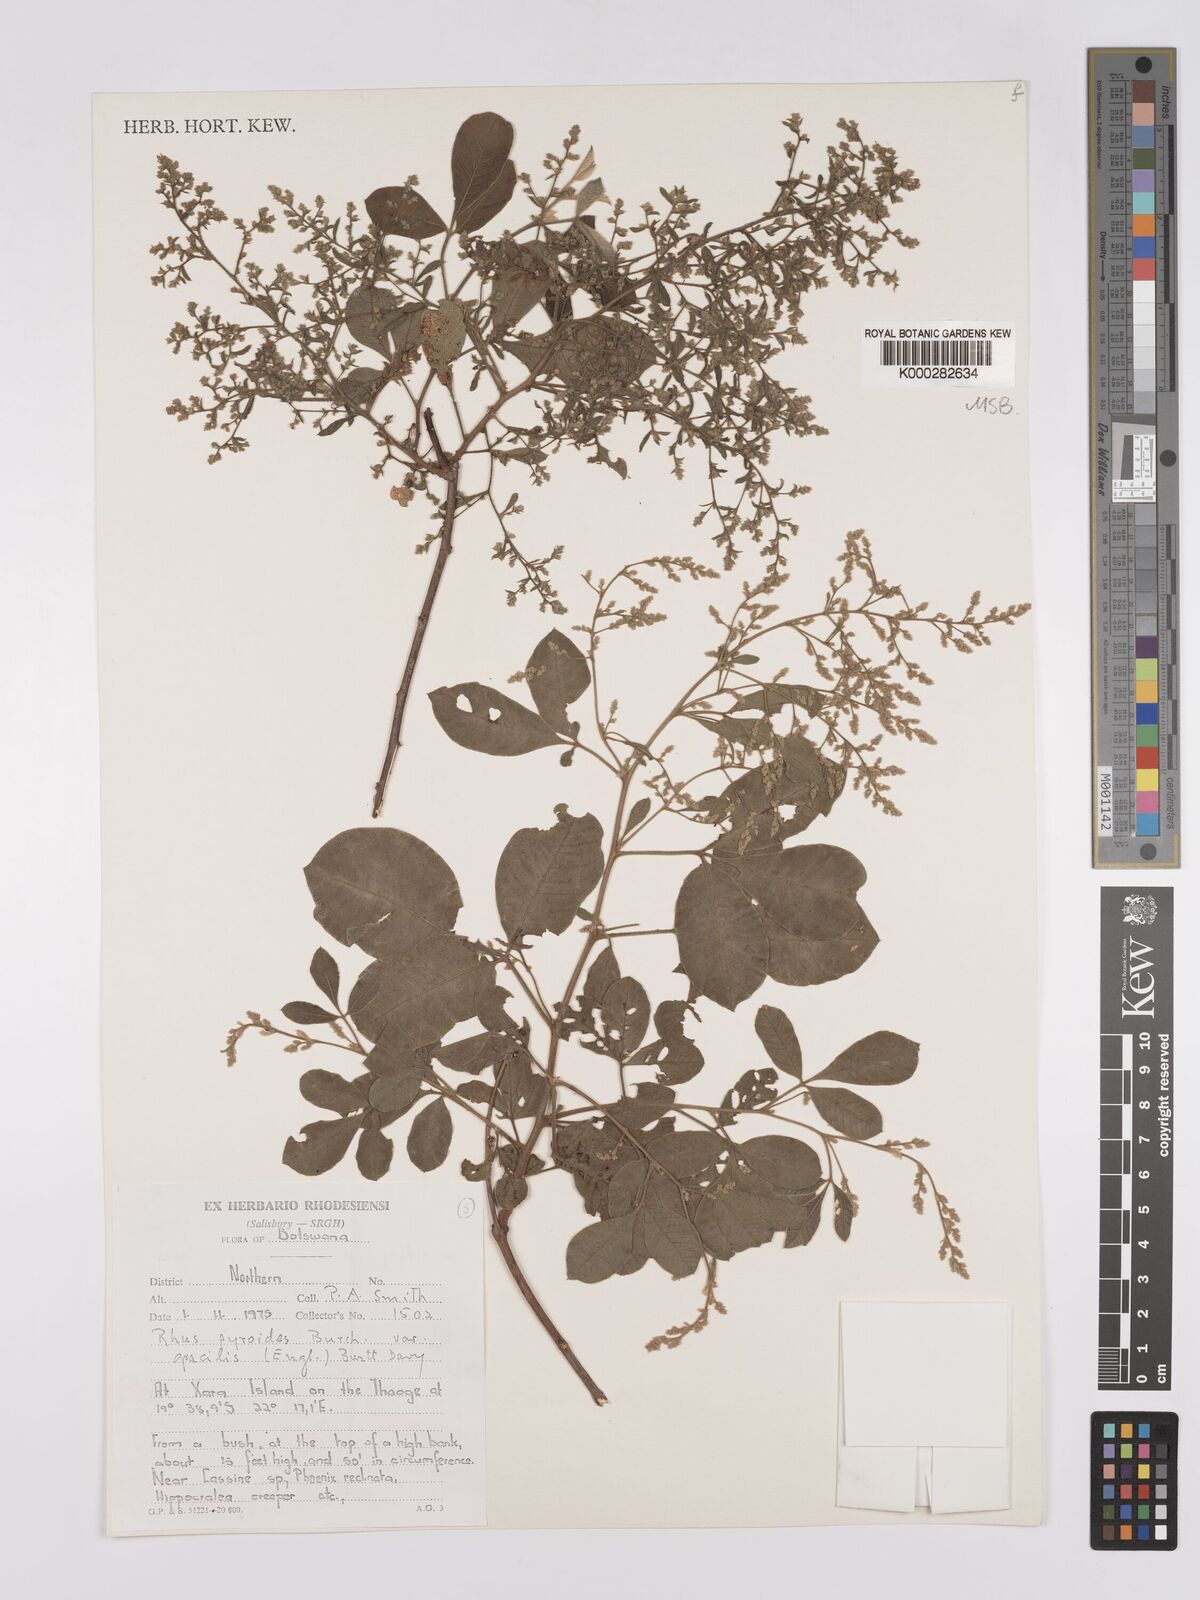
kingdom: Plantae
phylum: Tracheophyta
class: Magnoliopsida
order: Sapindales
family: Anacardiaceae
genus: Searsia
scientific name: Searsia pyroides
